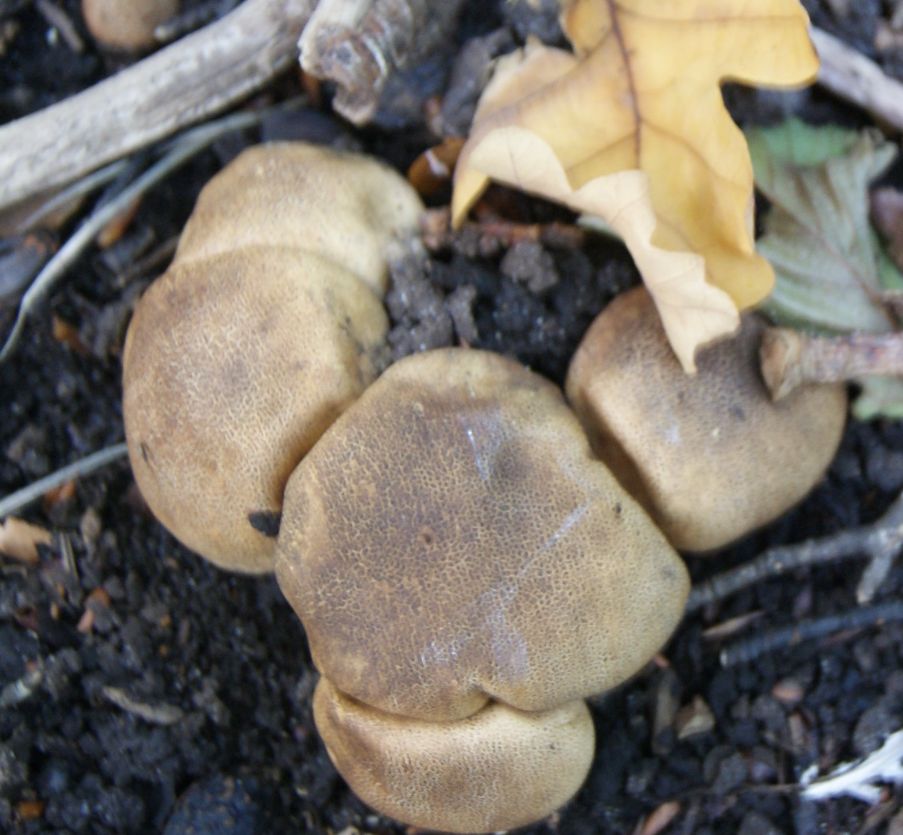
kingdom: Fungi
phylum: Basidiomycota
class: Agaricomycetes
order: Boletales
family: Sclerodermataceae
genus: Scleroderma
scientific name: Scleroderma areolatum
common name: plettet bruskbold
